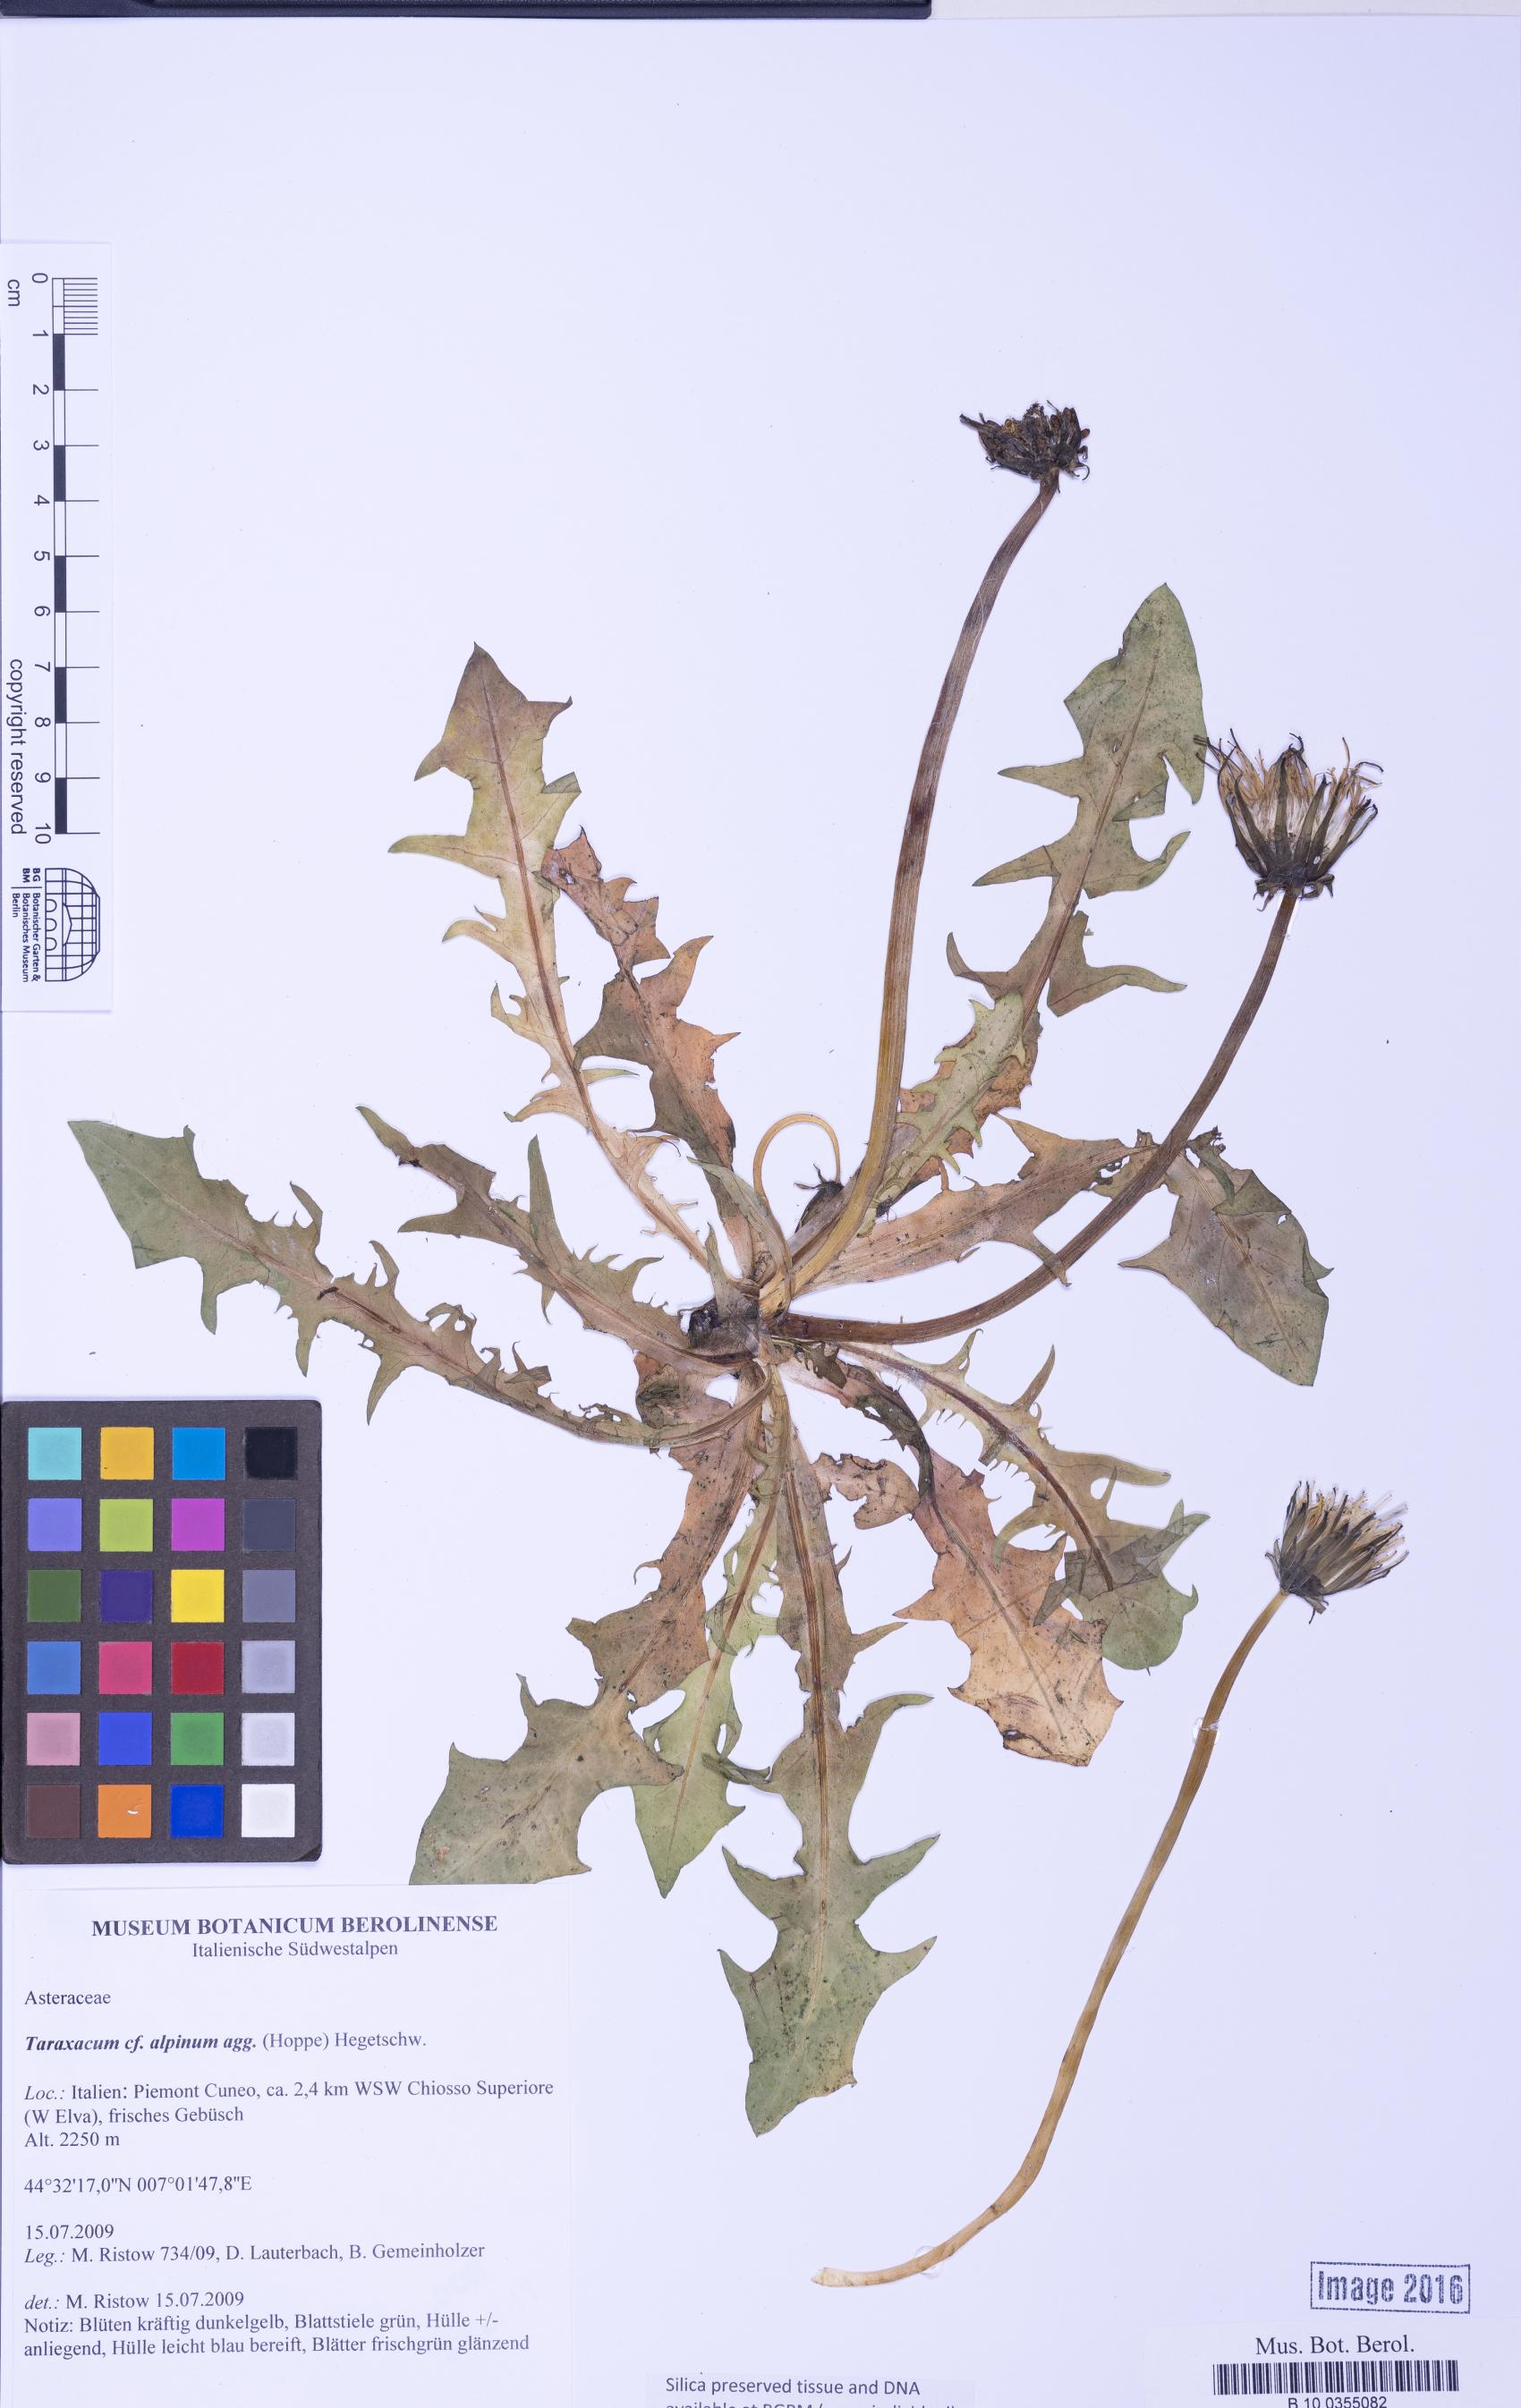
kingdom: Plantae
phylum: Tracheophyta
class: Magnoliopsida
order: Asterales
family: Asteraceae
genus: Taraxacum
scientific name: Taraxacum
